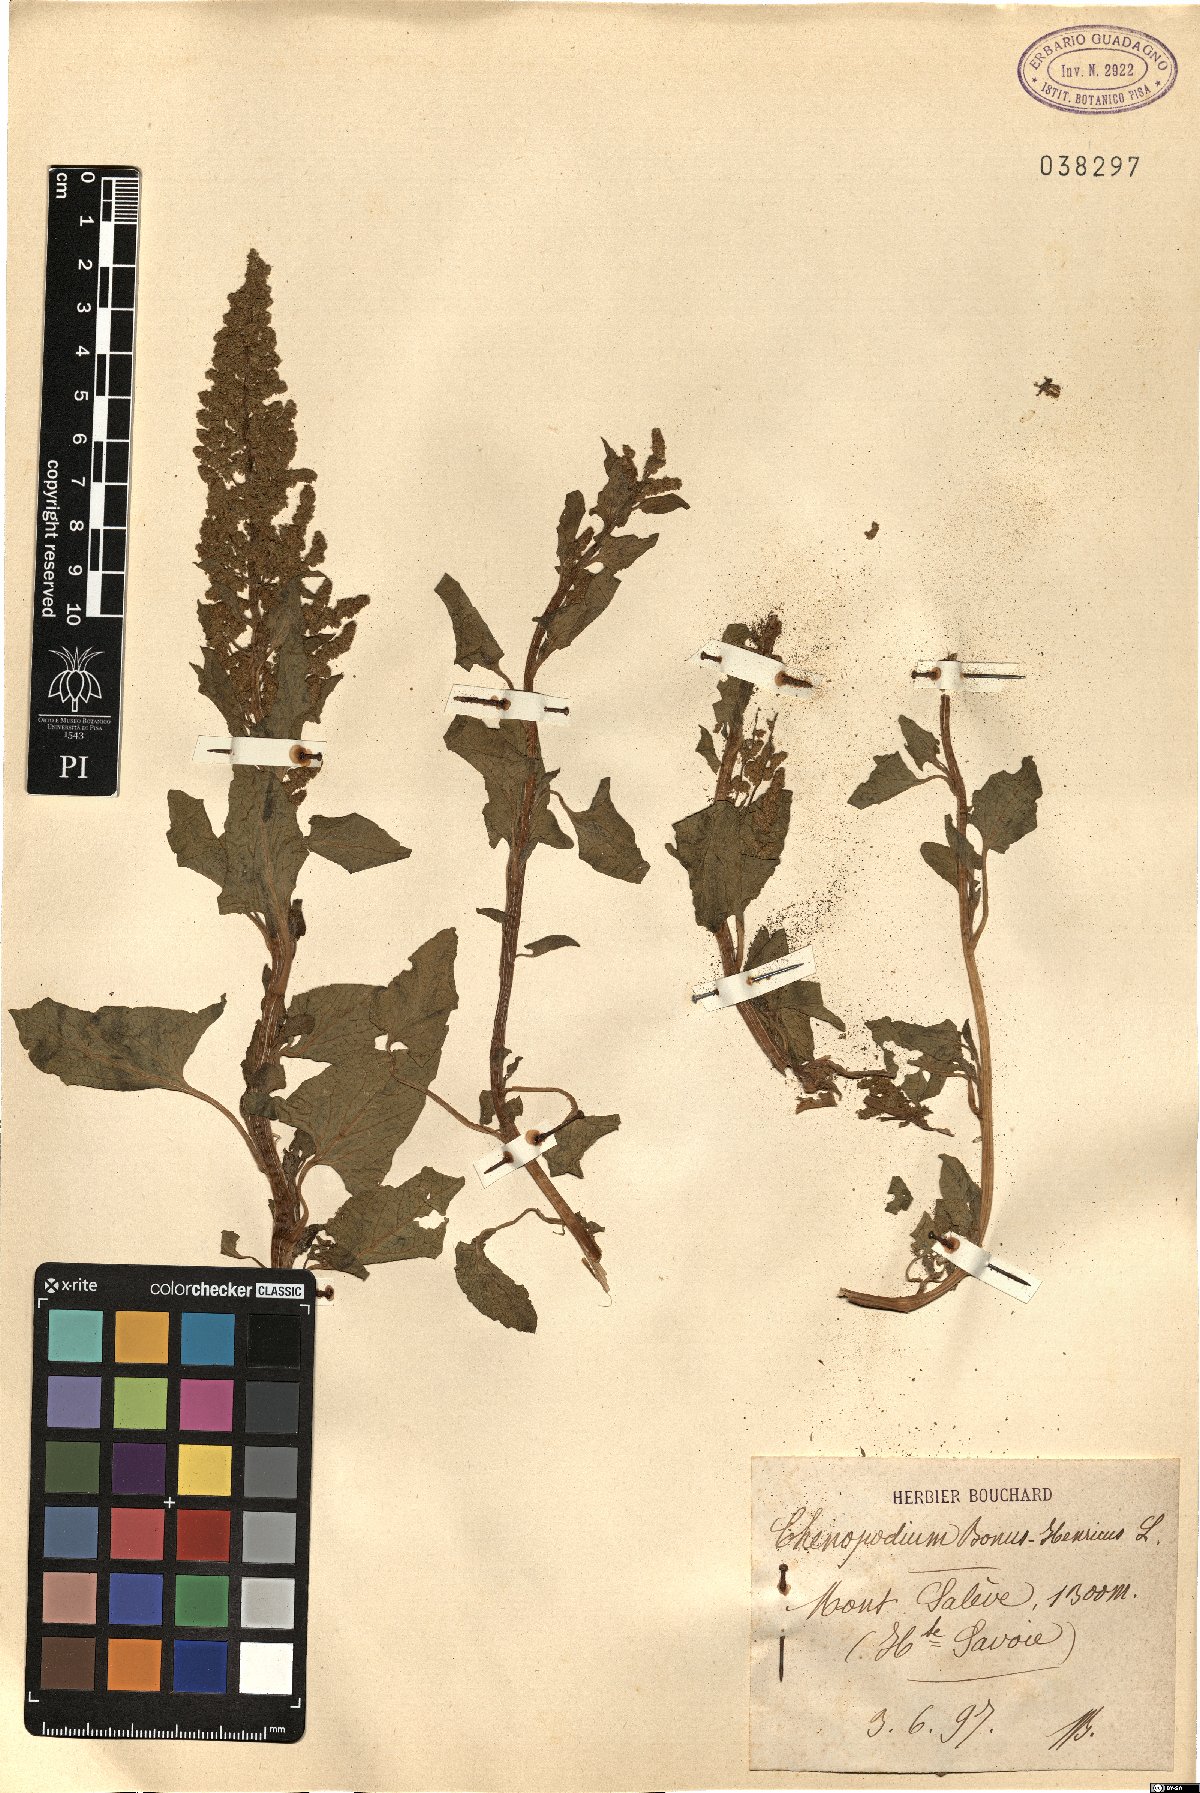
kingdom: Plantae
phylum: Tracheophyta
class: Magnoliopsida
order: Caryophyllales
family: Amaranthaceae
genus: Blitum
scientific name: Blitum bonus-henricus
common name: Good king henry
